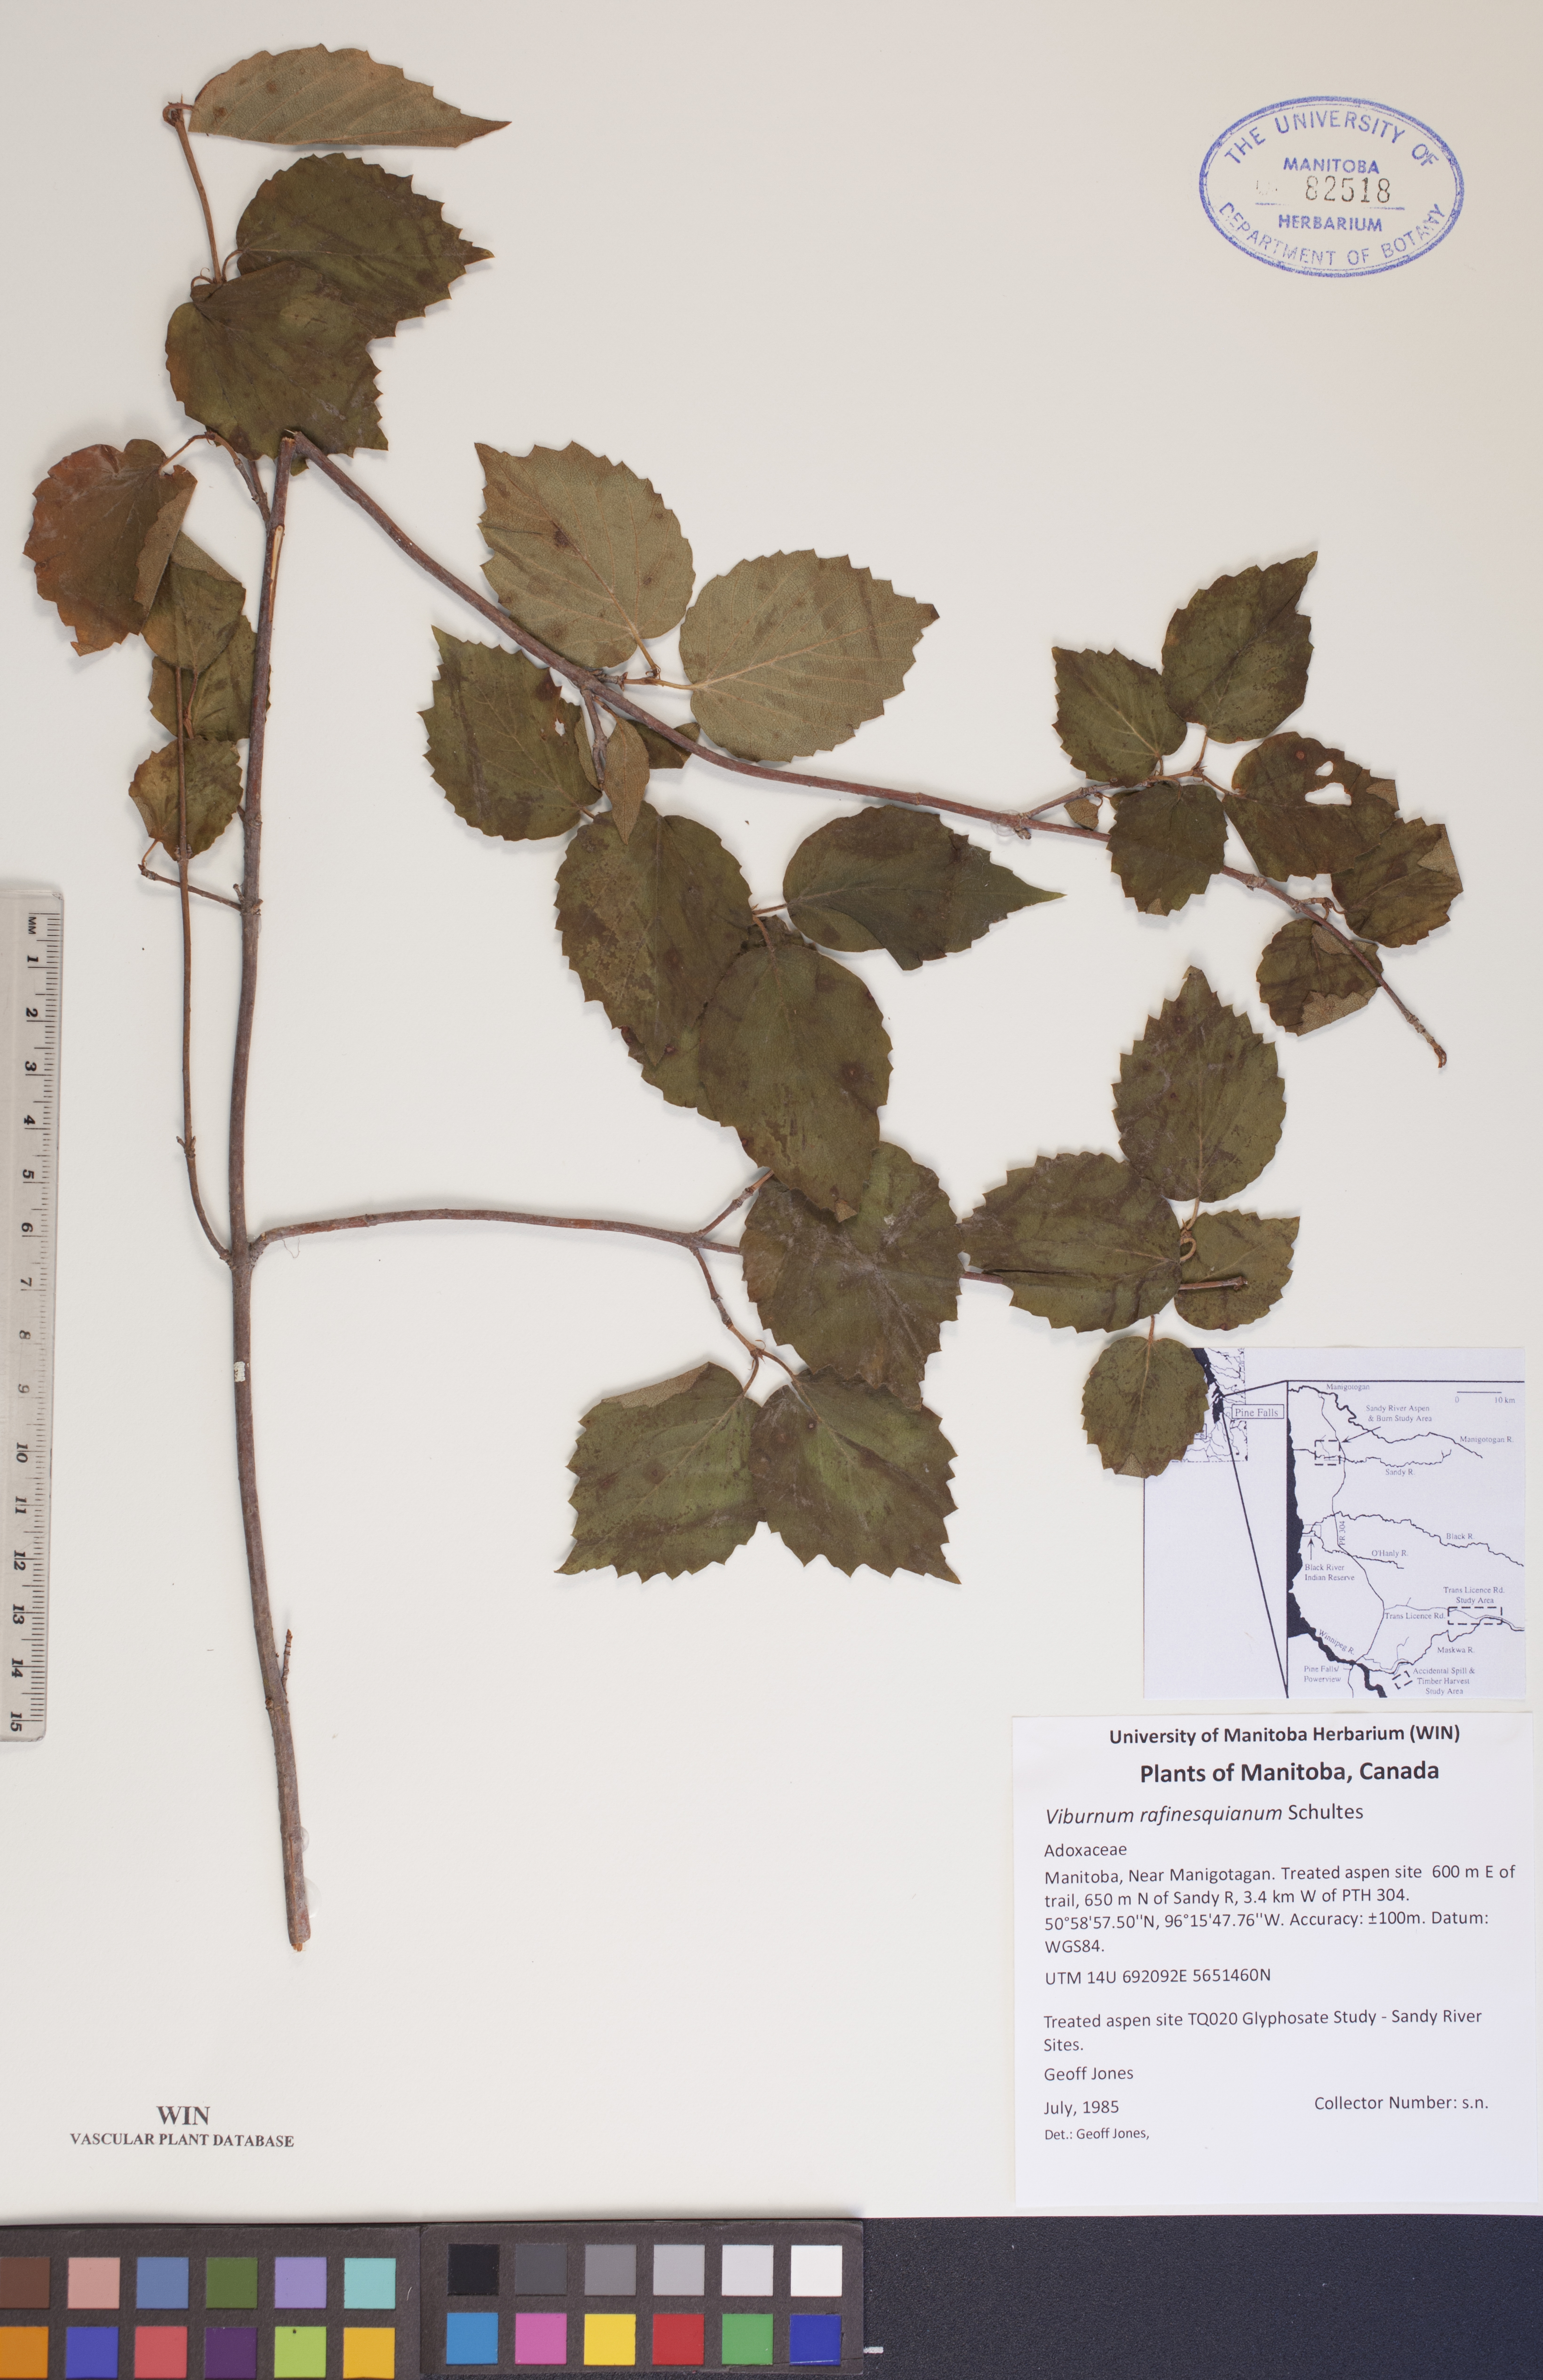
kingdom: Plantae
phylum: Tracheophyta
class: Magnoliopsida
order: Dipsacales
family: Viburnaceae
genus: Viburnum
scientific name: Viburnum rafinesquianum
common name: Downy arrow-wood
